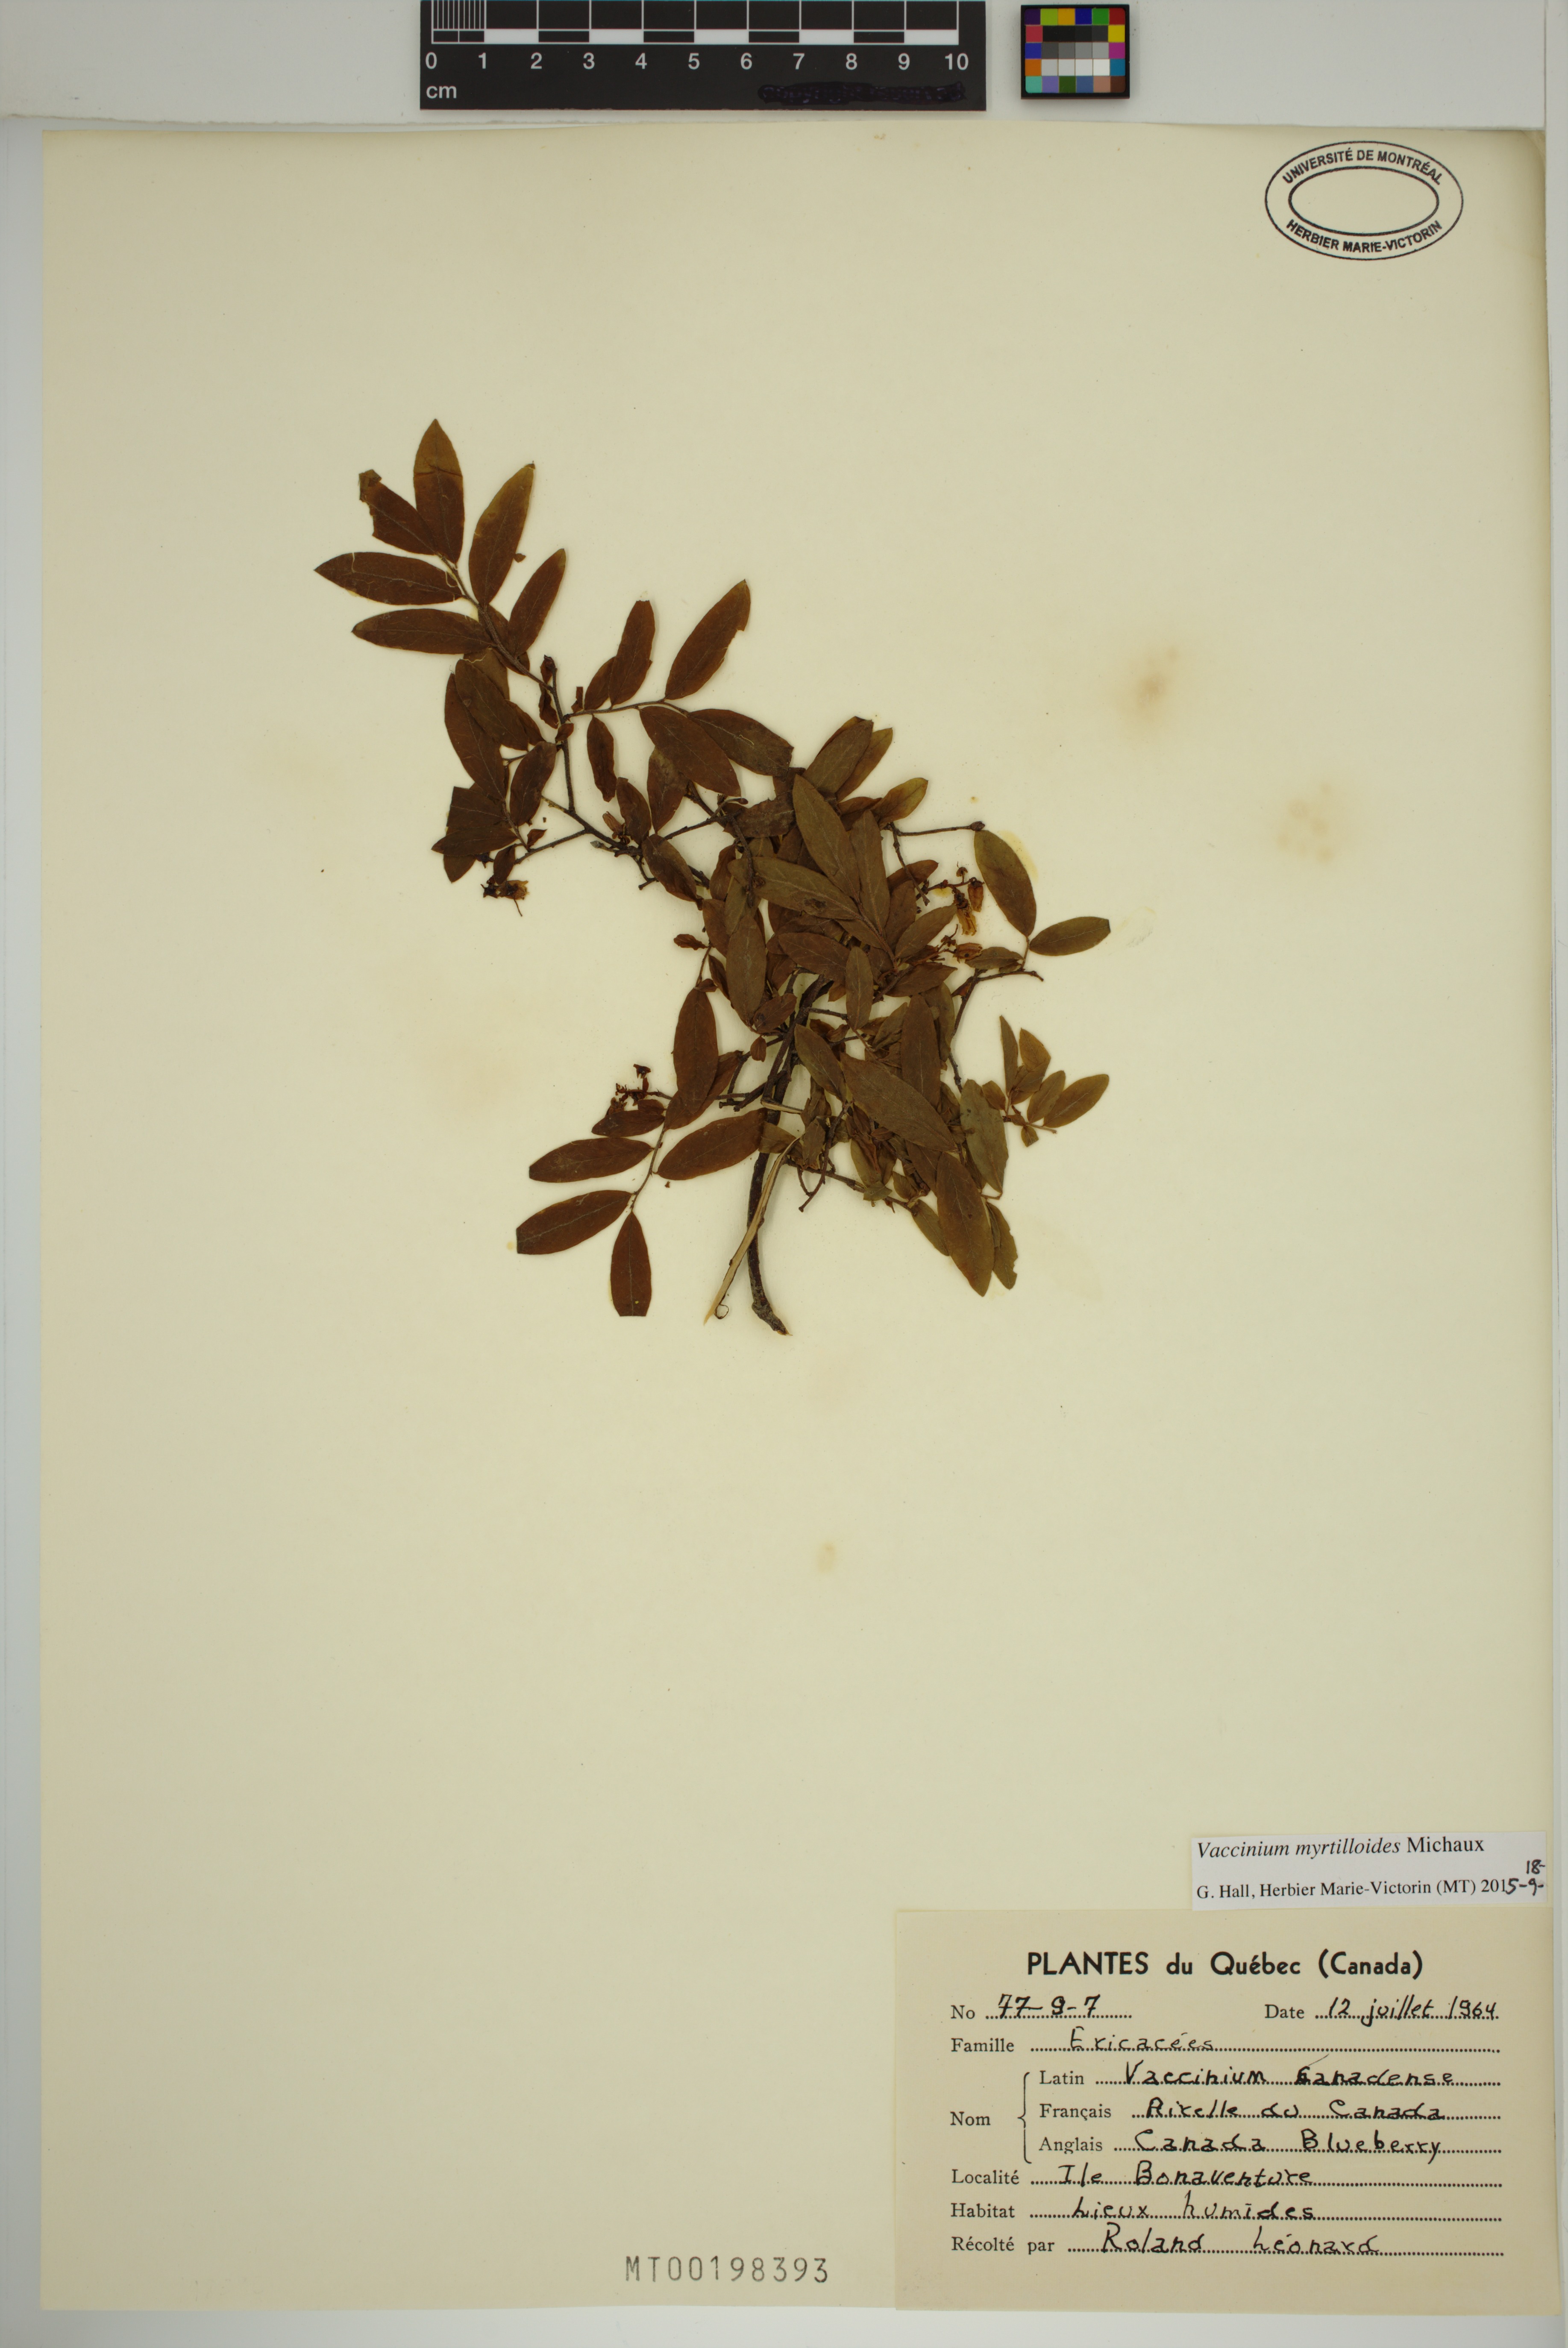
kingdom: Plantae
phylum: Tracheophyta
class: Magnoliopsida
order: Ericales
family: Ericaceae
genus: Vaccinium
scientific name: Vaccinium myrtilloides
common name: Canada blueberry
